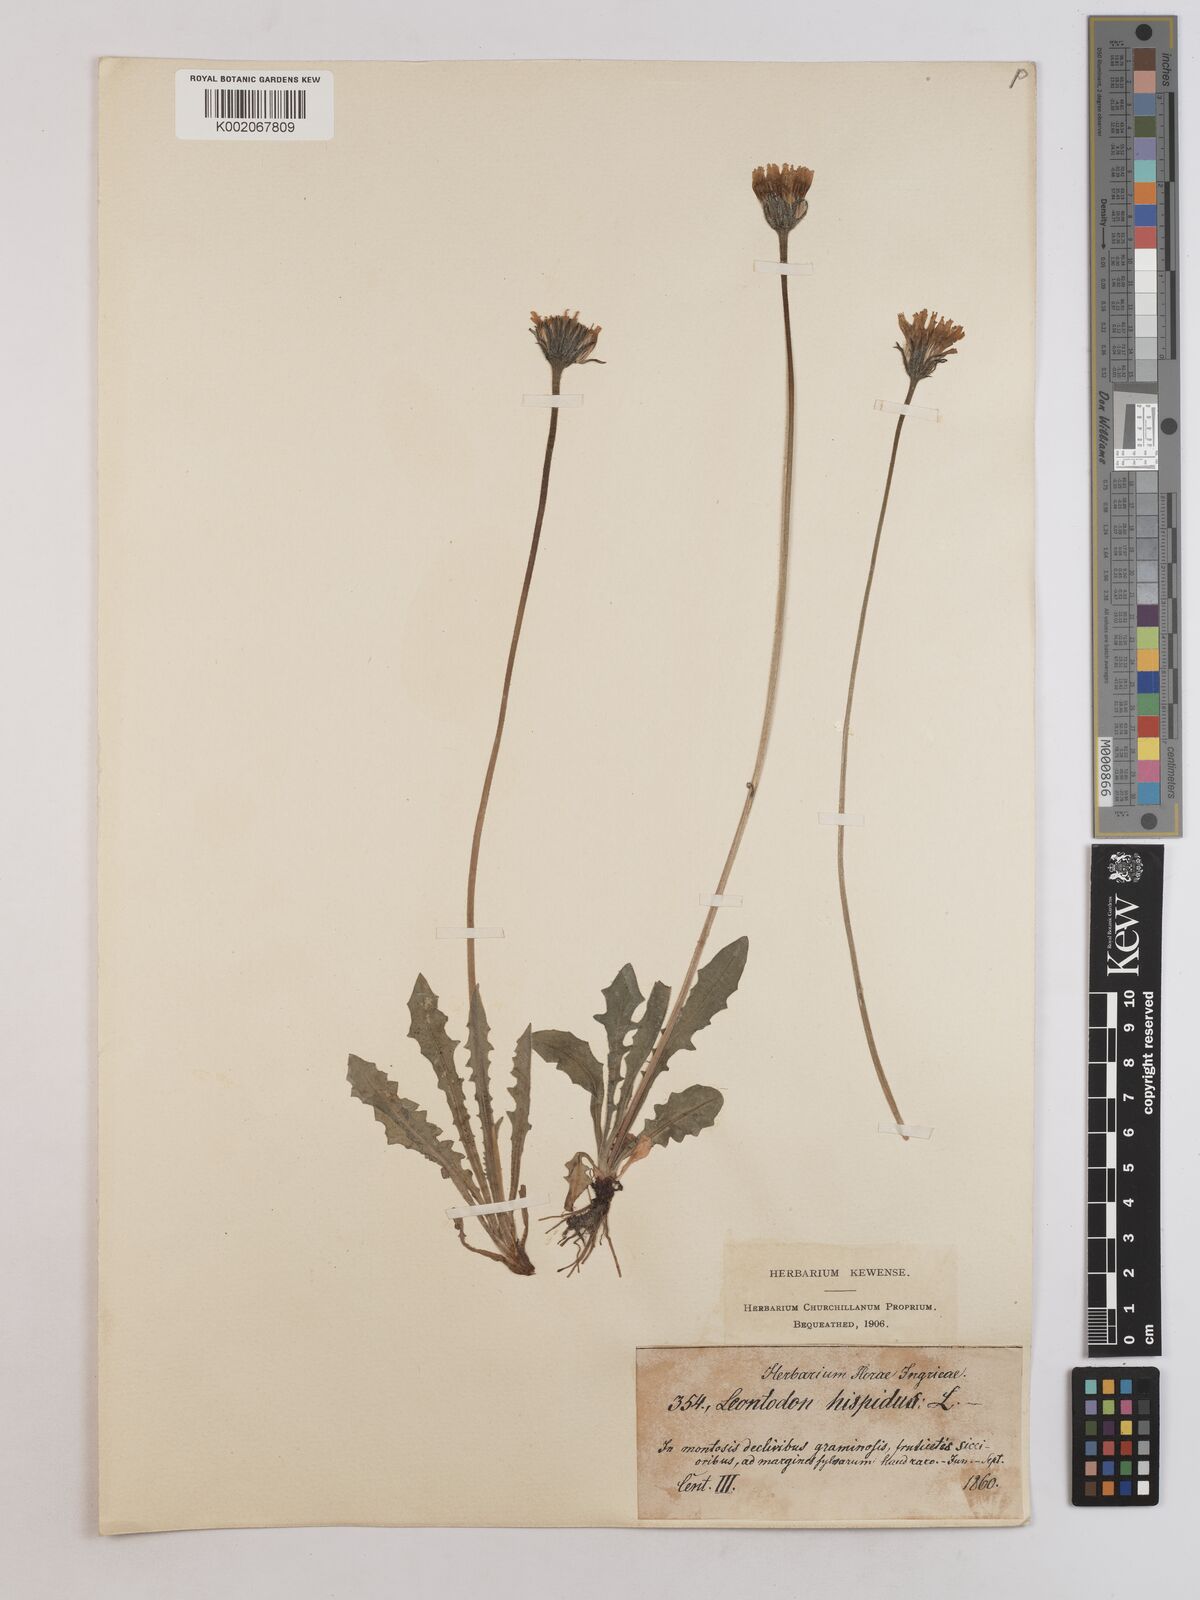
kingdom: Plantae
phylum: Tracheophyta
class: Magnoliopsida
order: Asterales
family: Asteraceae
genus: Leontodon
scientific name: Leontodon hispidus
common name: Rough hawkbit
